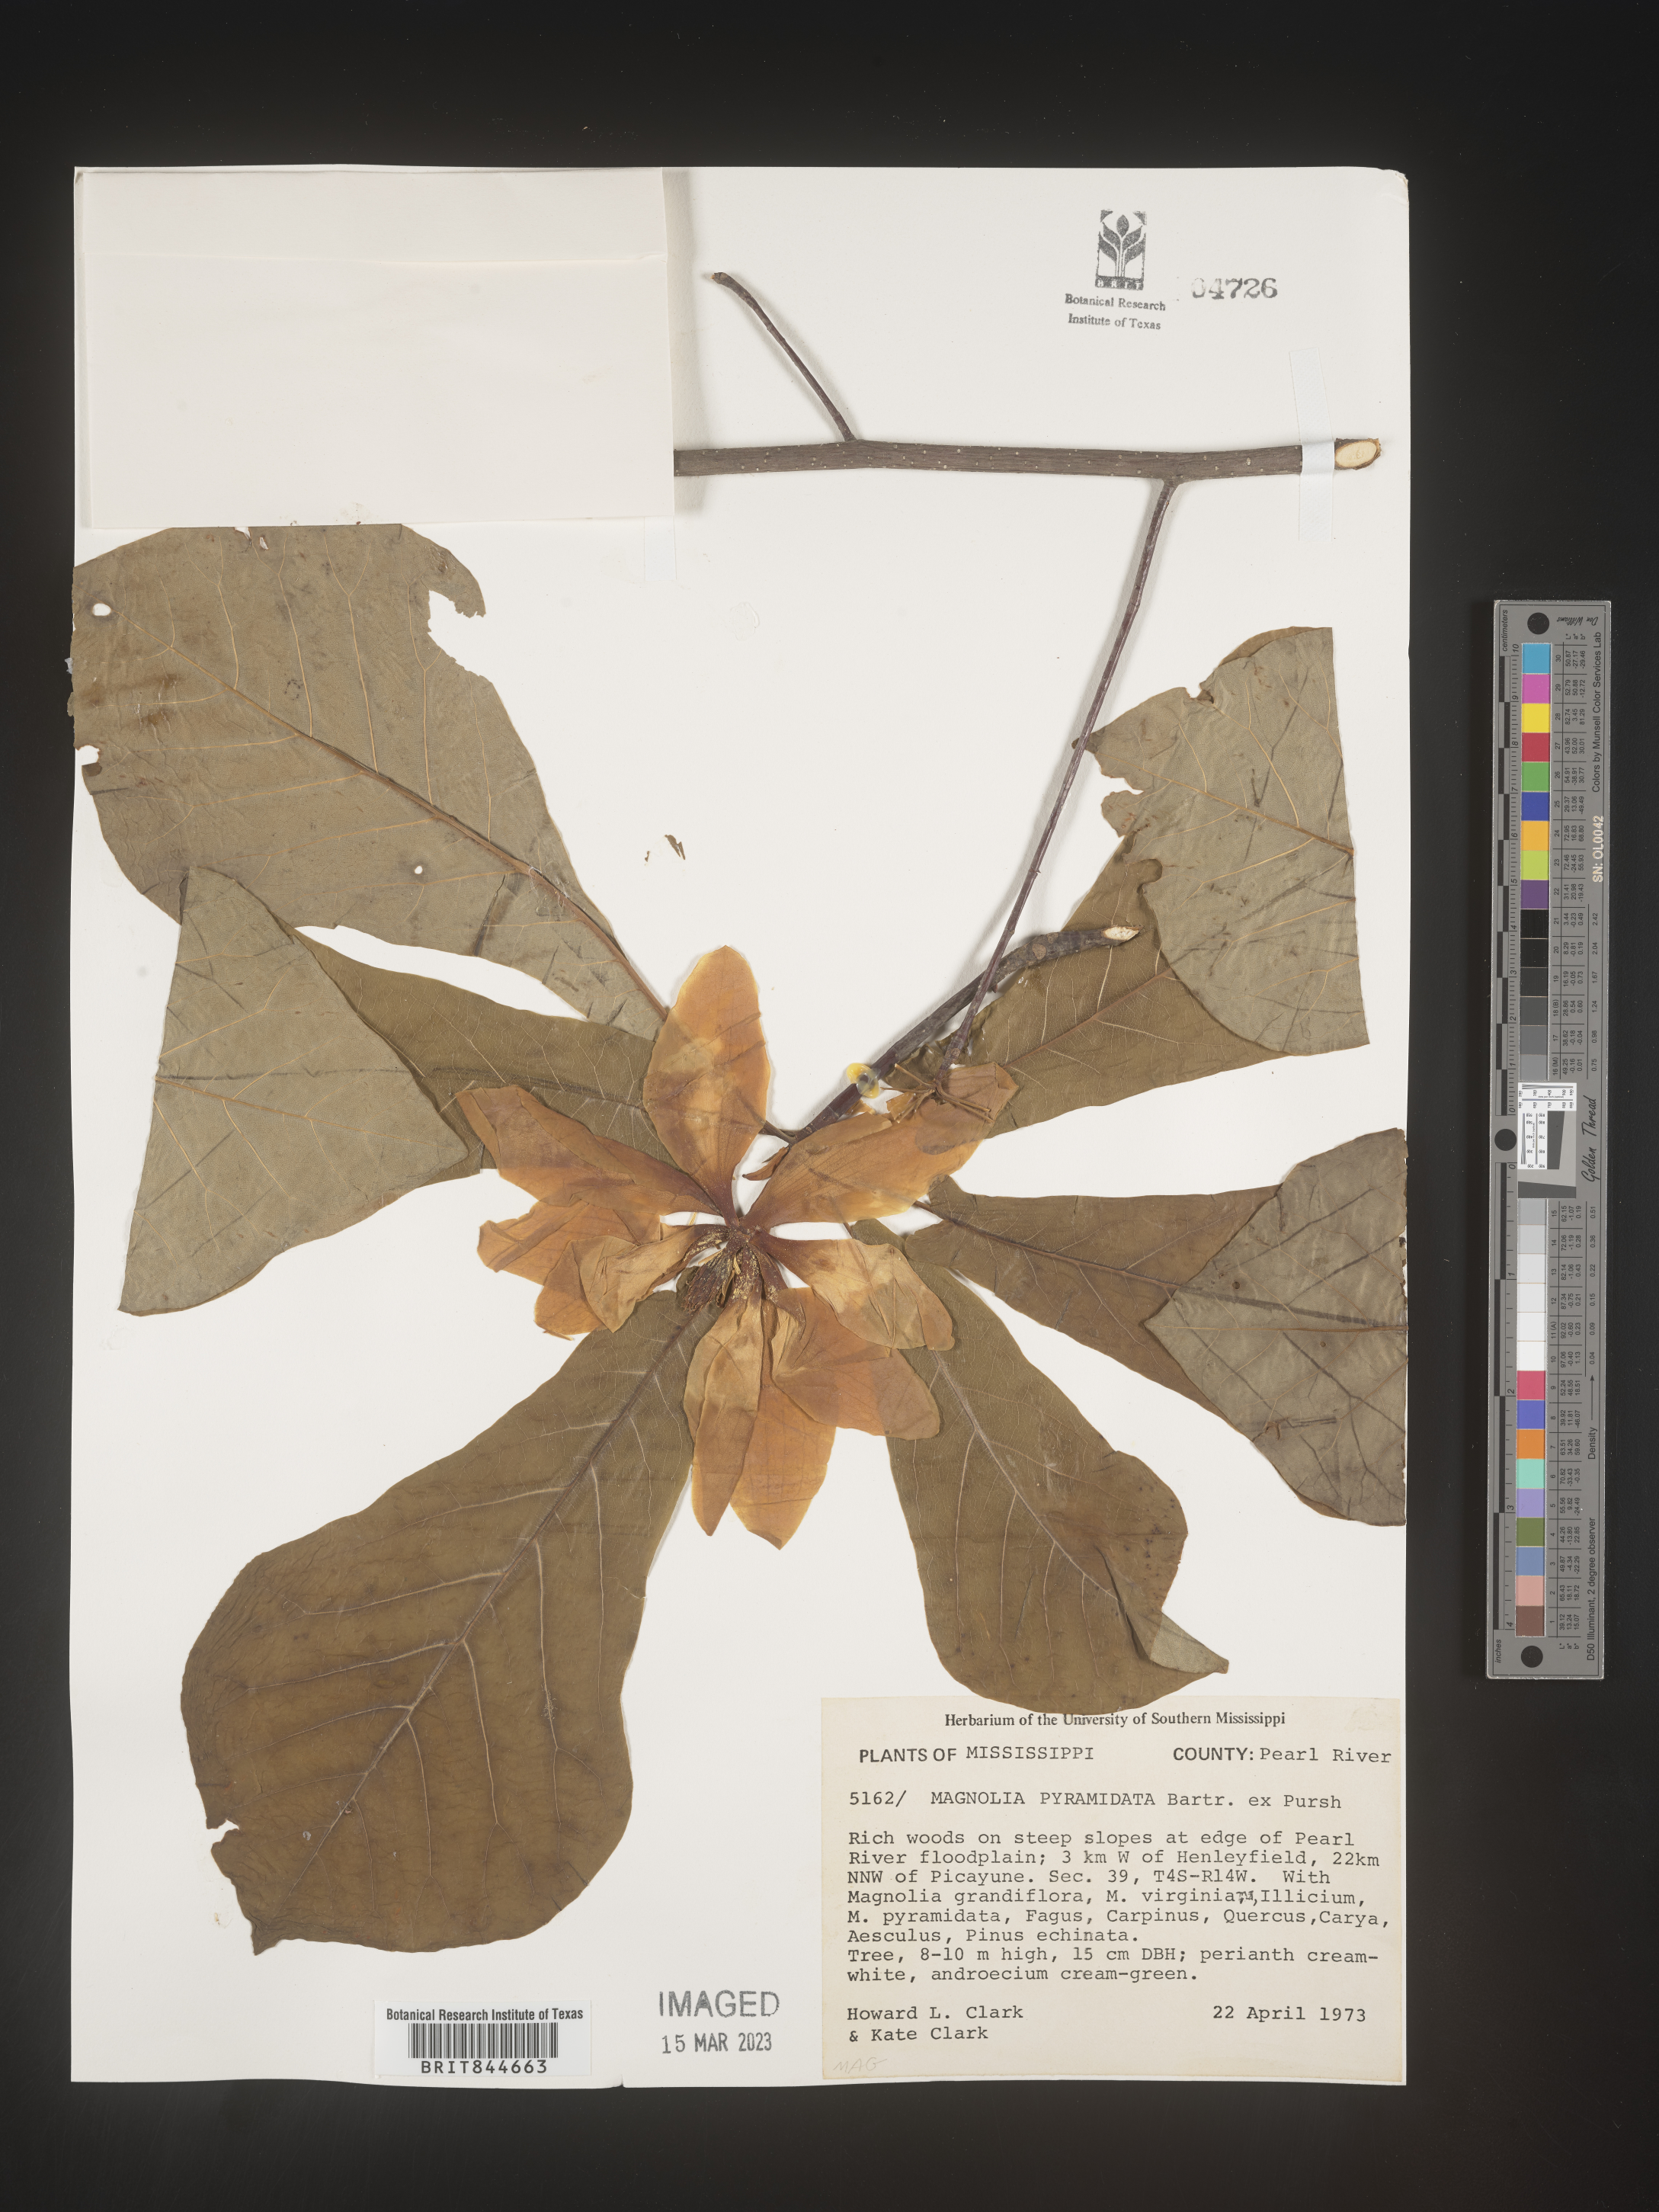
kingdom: Plantae
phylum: Tracheophyta
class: Magnoliopsida
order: Magnoliales
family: Magnoliaceae
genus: Magnolia
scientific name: Magnolia fraseri
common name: Fraser's magnolia
